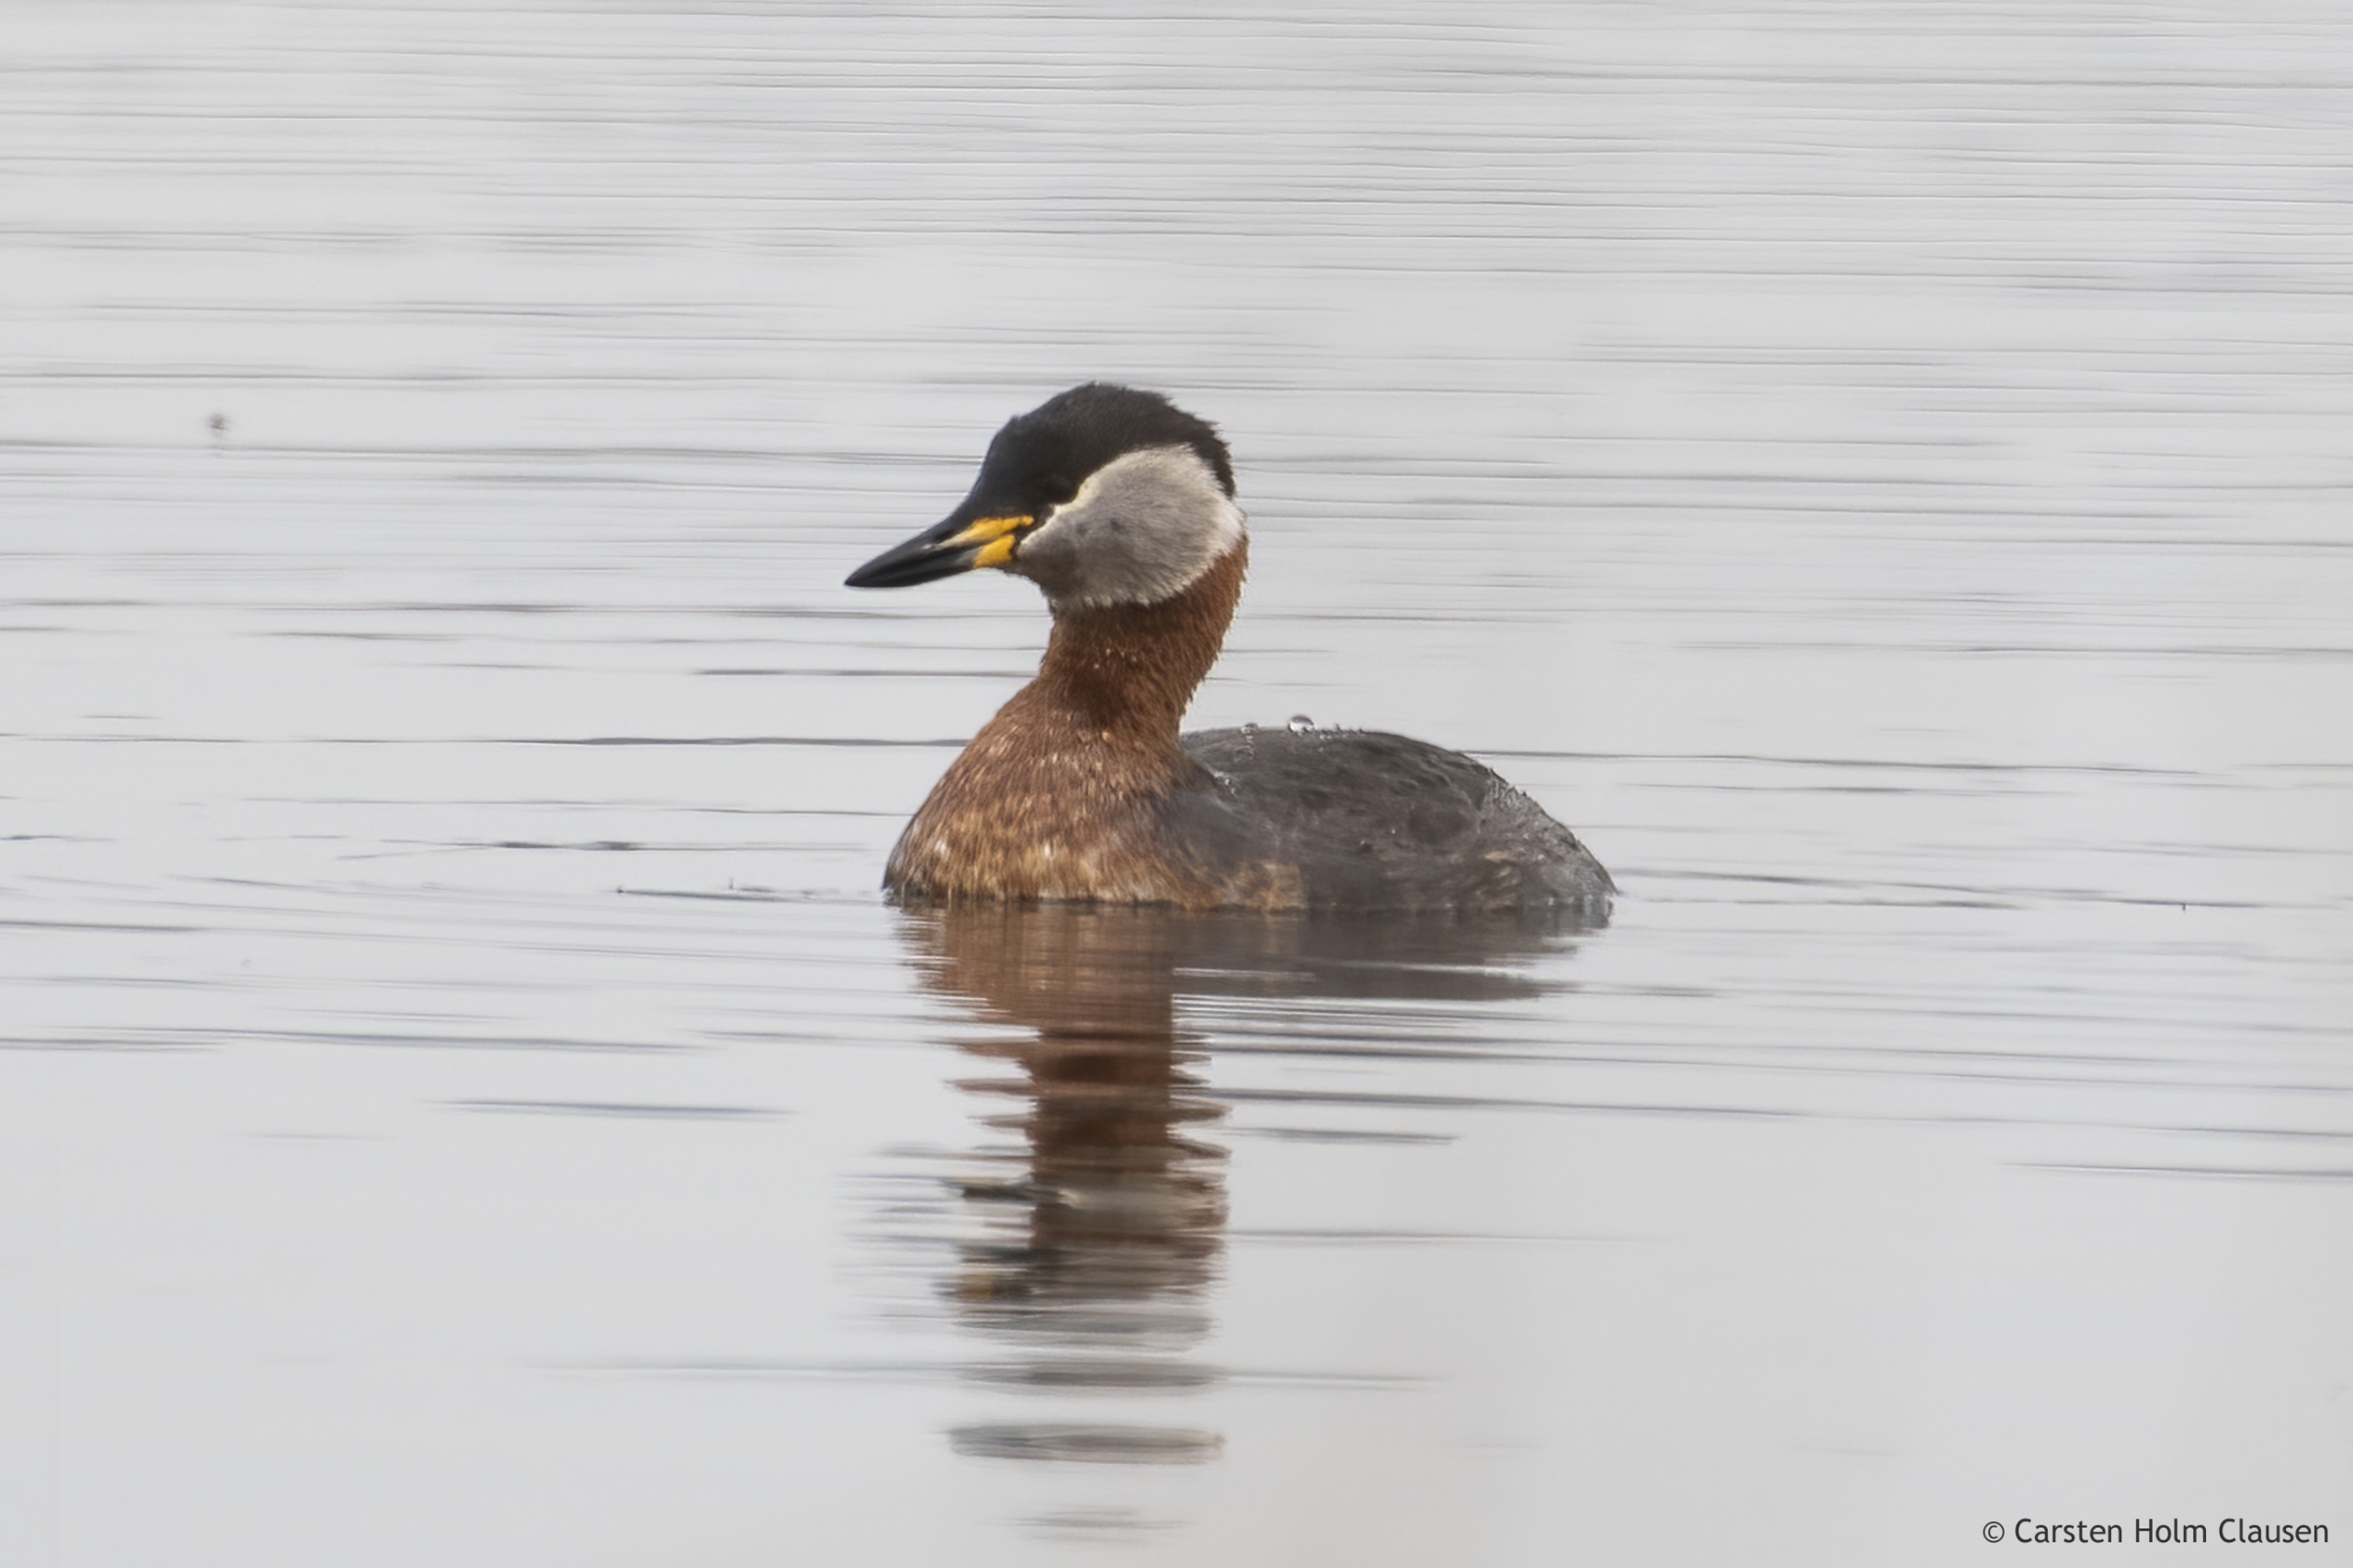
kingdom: Animalia
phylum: Chordata
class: Aves
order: Podicipediformes
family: Podicipedidae
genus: Podiceps
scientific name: Podiceps grisegena
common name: Gråstrubet lappedykker
